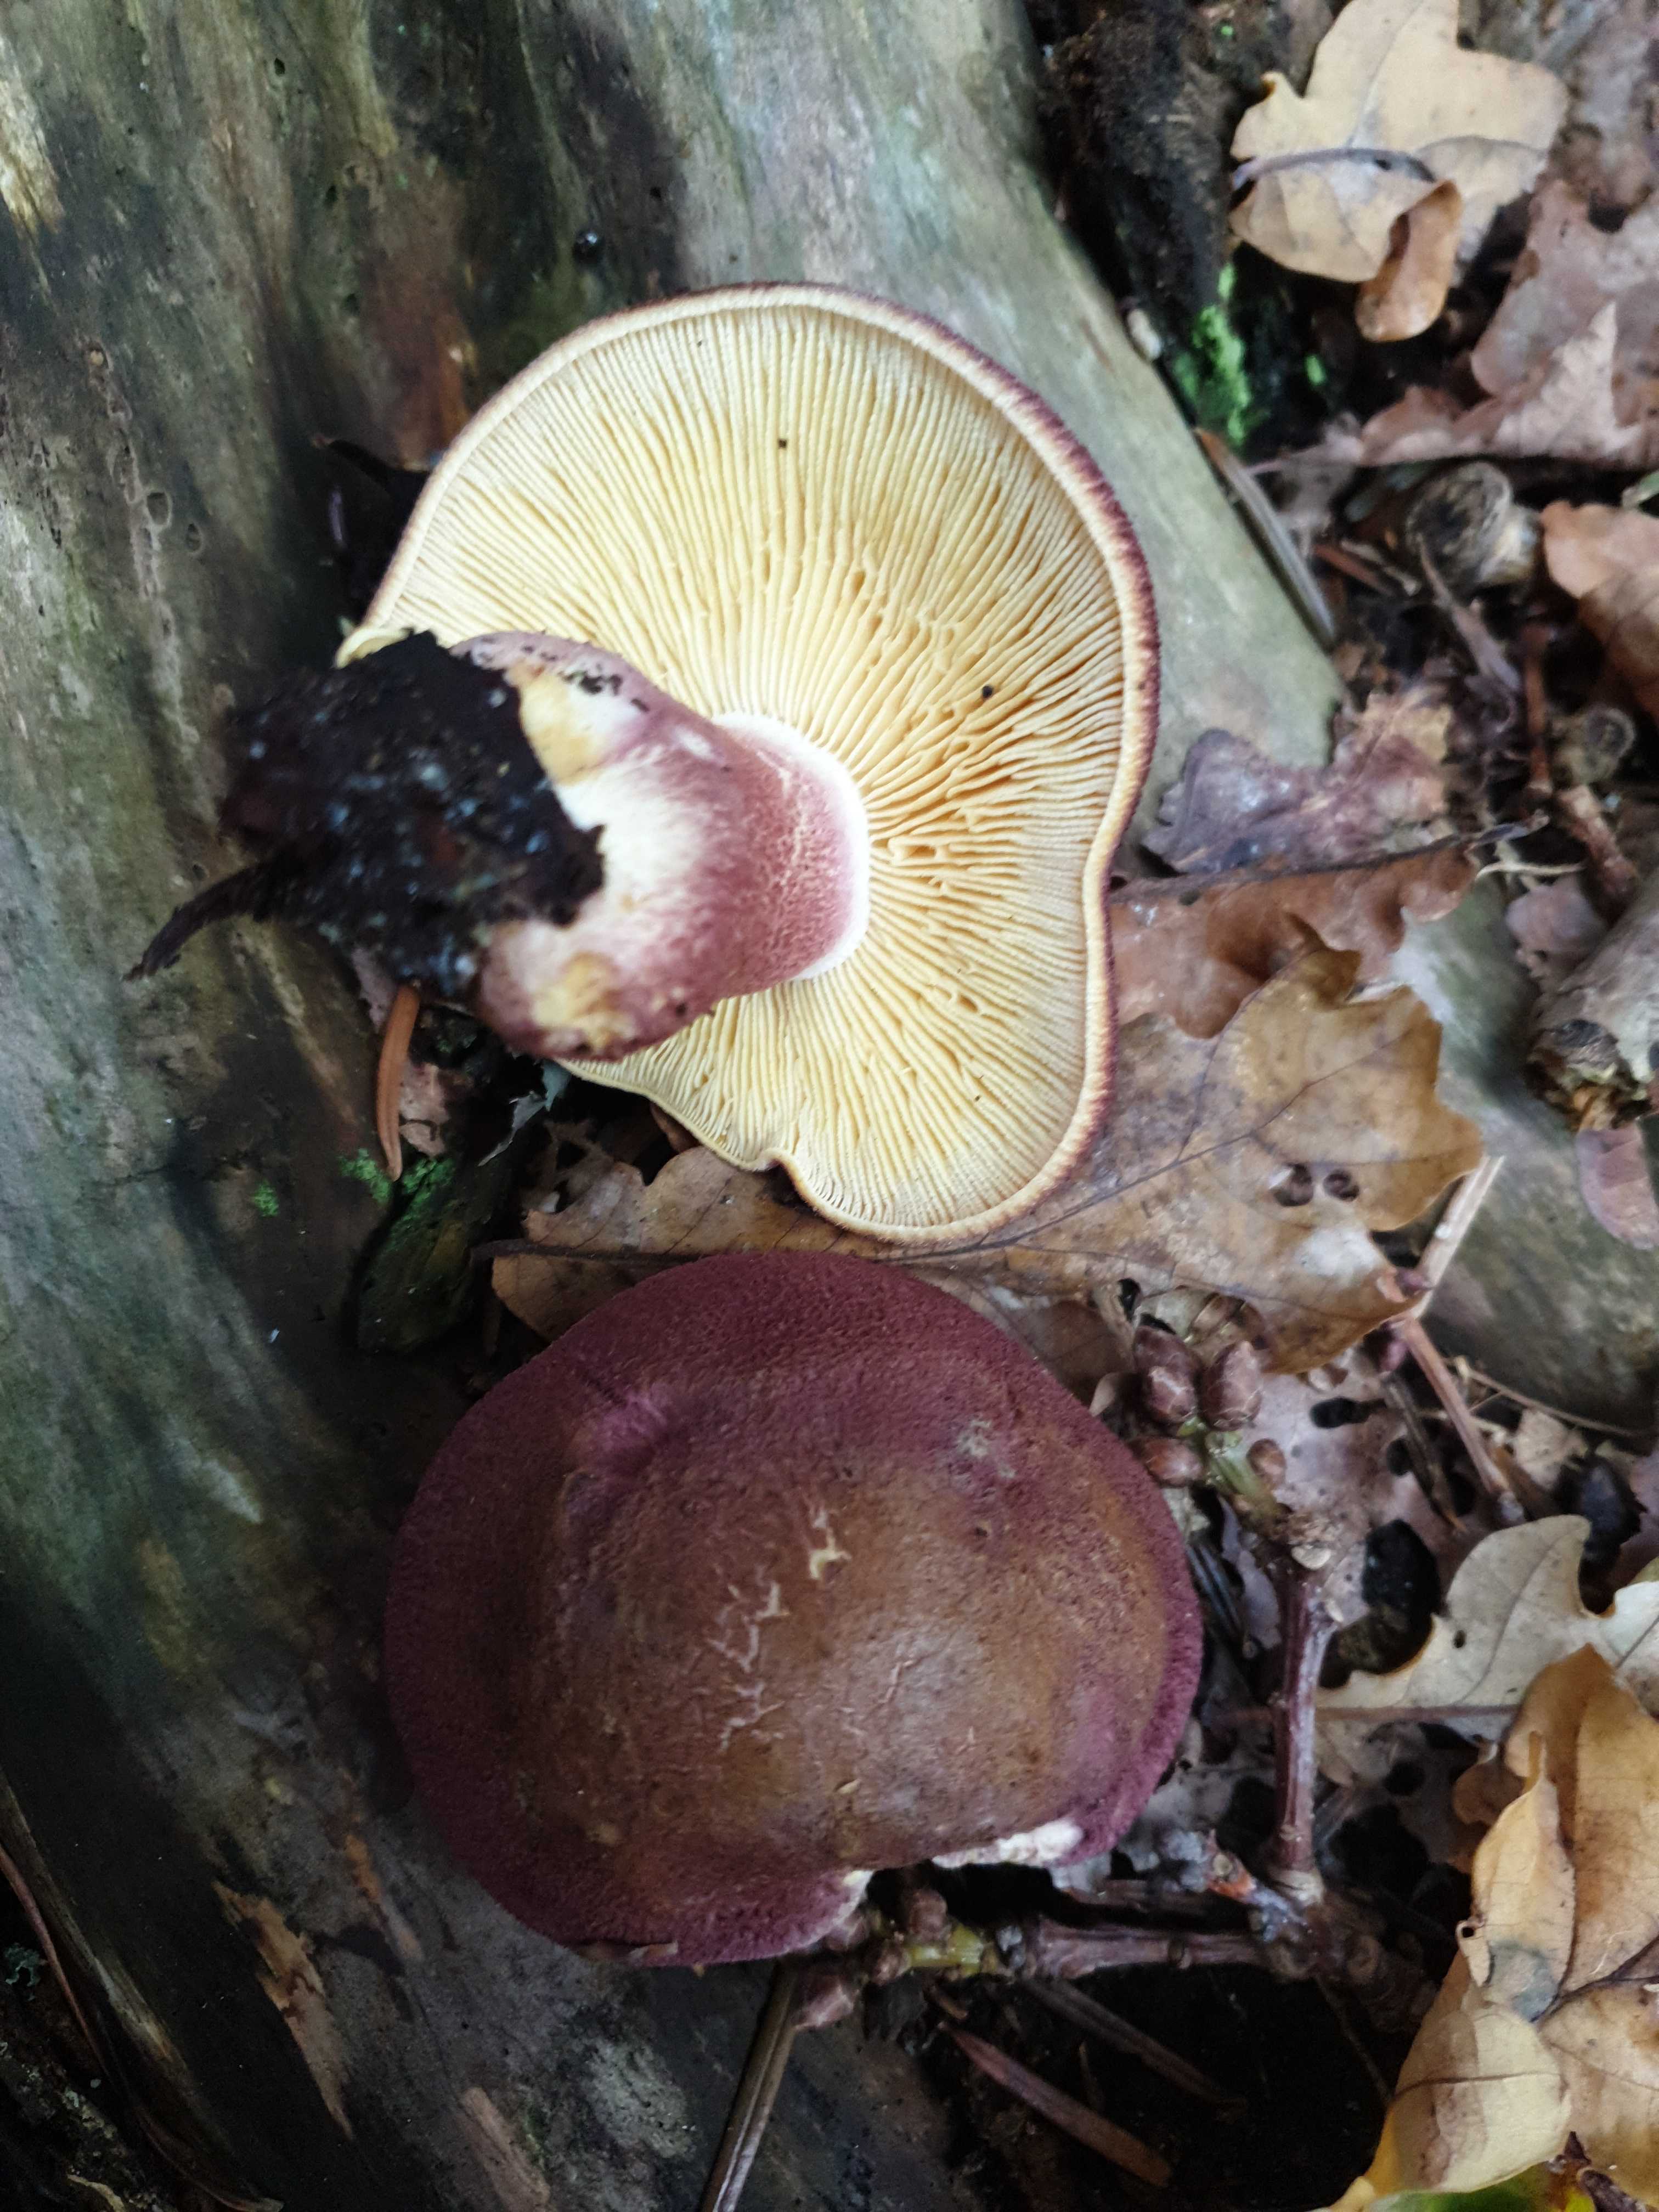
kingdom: Fungi
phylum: Basidiomycota
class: Agaricomycetes
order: Agaricales
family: Tricholomataceae
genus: Tricholomopsis
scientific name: Tricholomopsis rutilans
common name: purpur-væbnerhat
